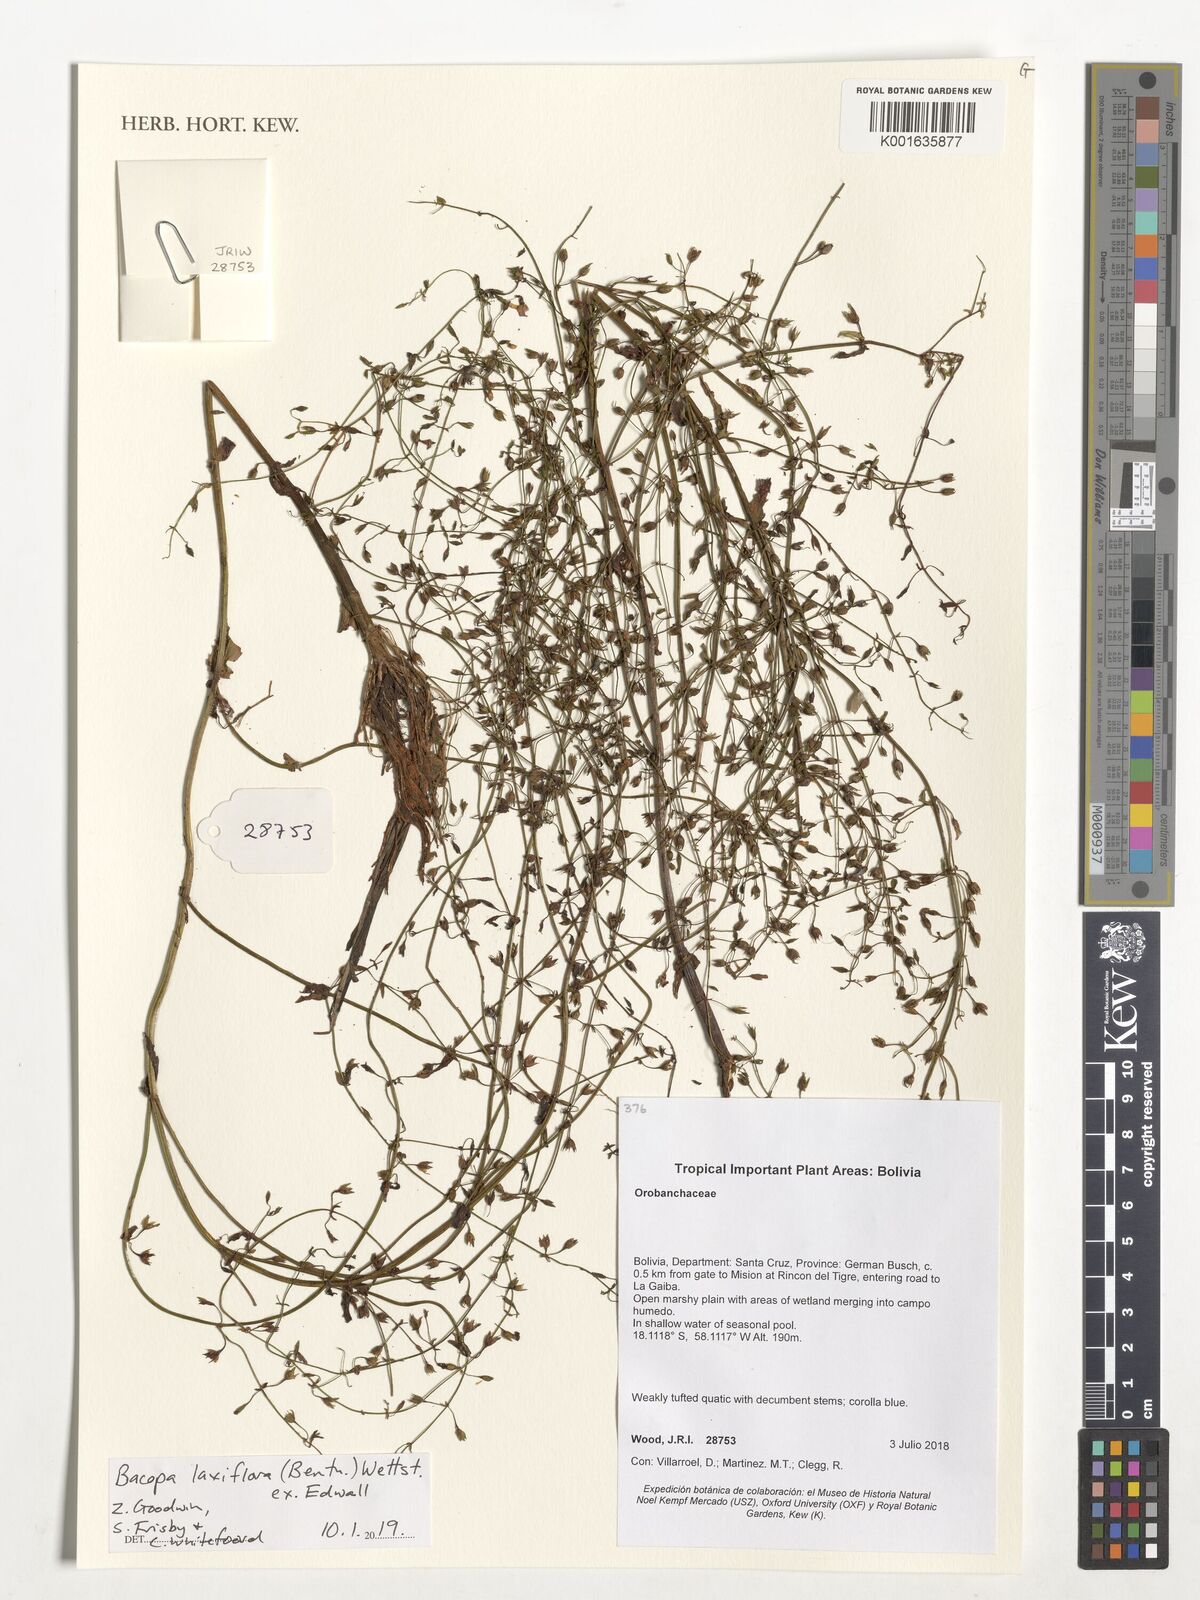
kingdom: Plantae
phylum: Tracheophyta
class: Magnoliopsida
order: Lamiales
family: Plantaginaceae
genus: Bacopa
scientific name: Bacopa laxiflora
